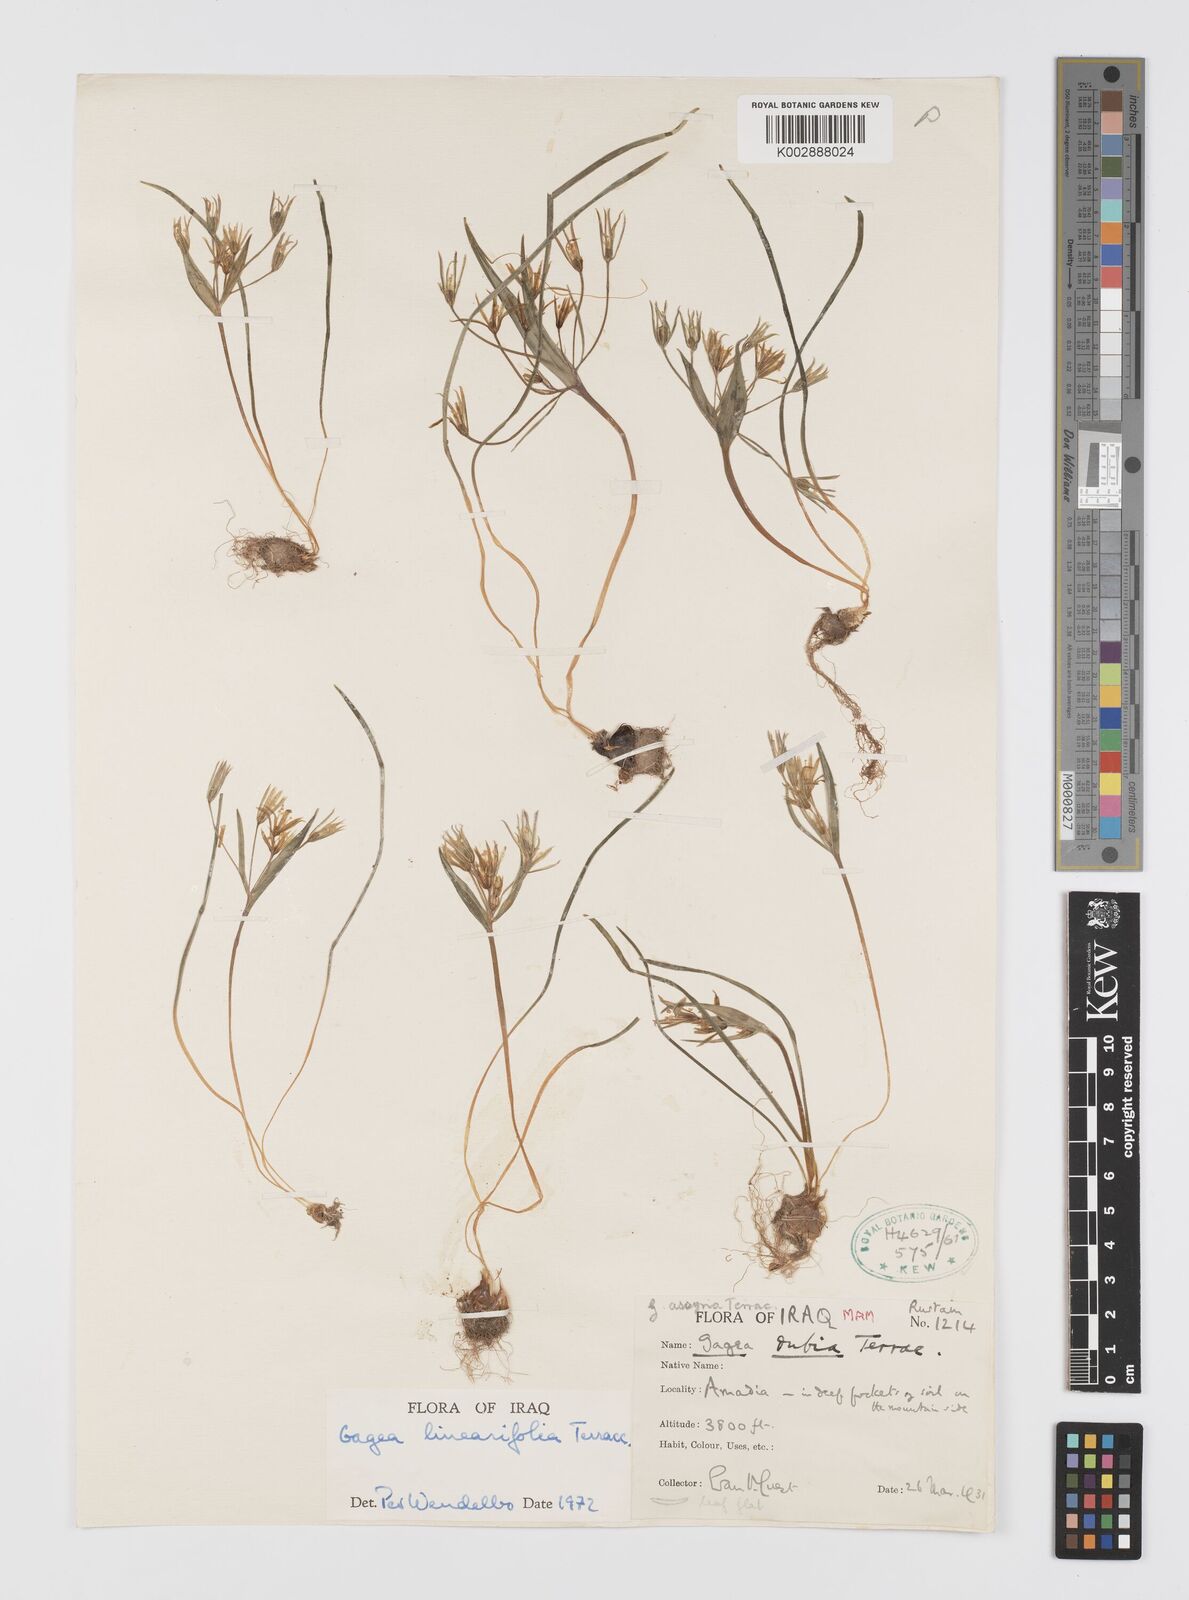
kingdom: Plantae
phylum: Tracheophyta
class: Liliopsida
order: Liliales
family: Liliaceae
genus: Gagea
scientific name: Gagea luteoides
